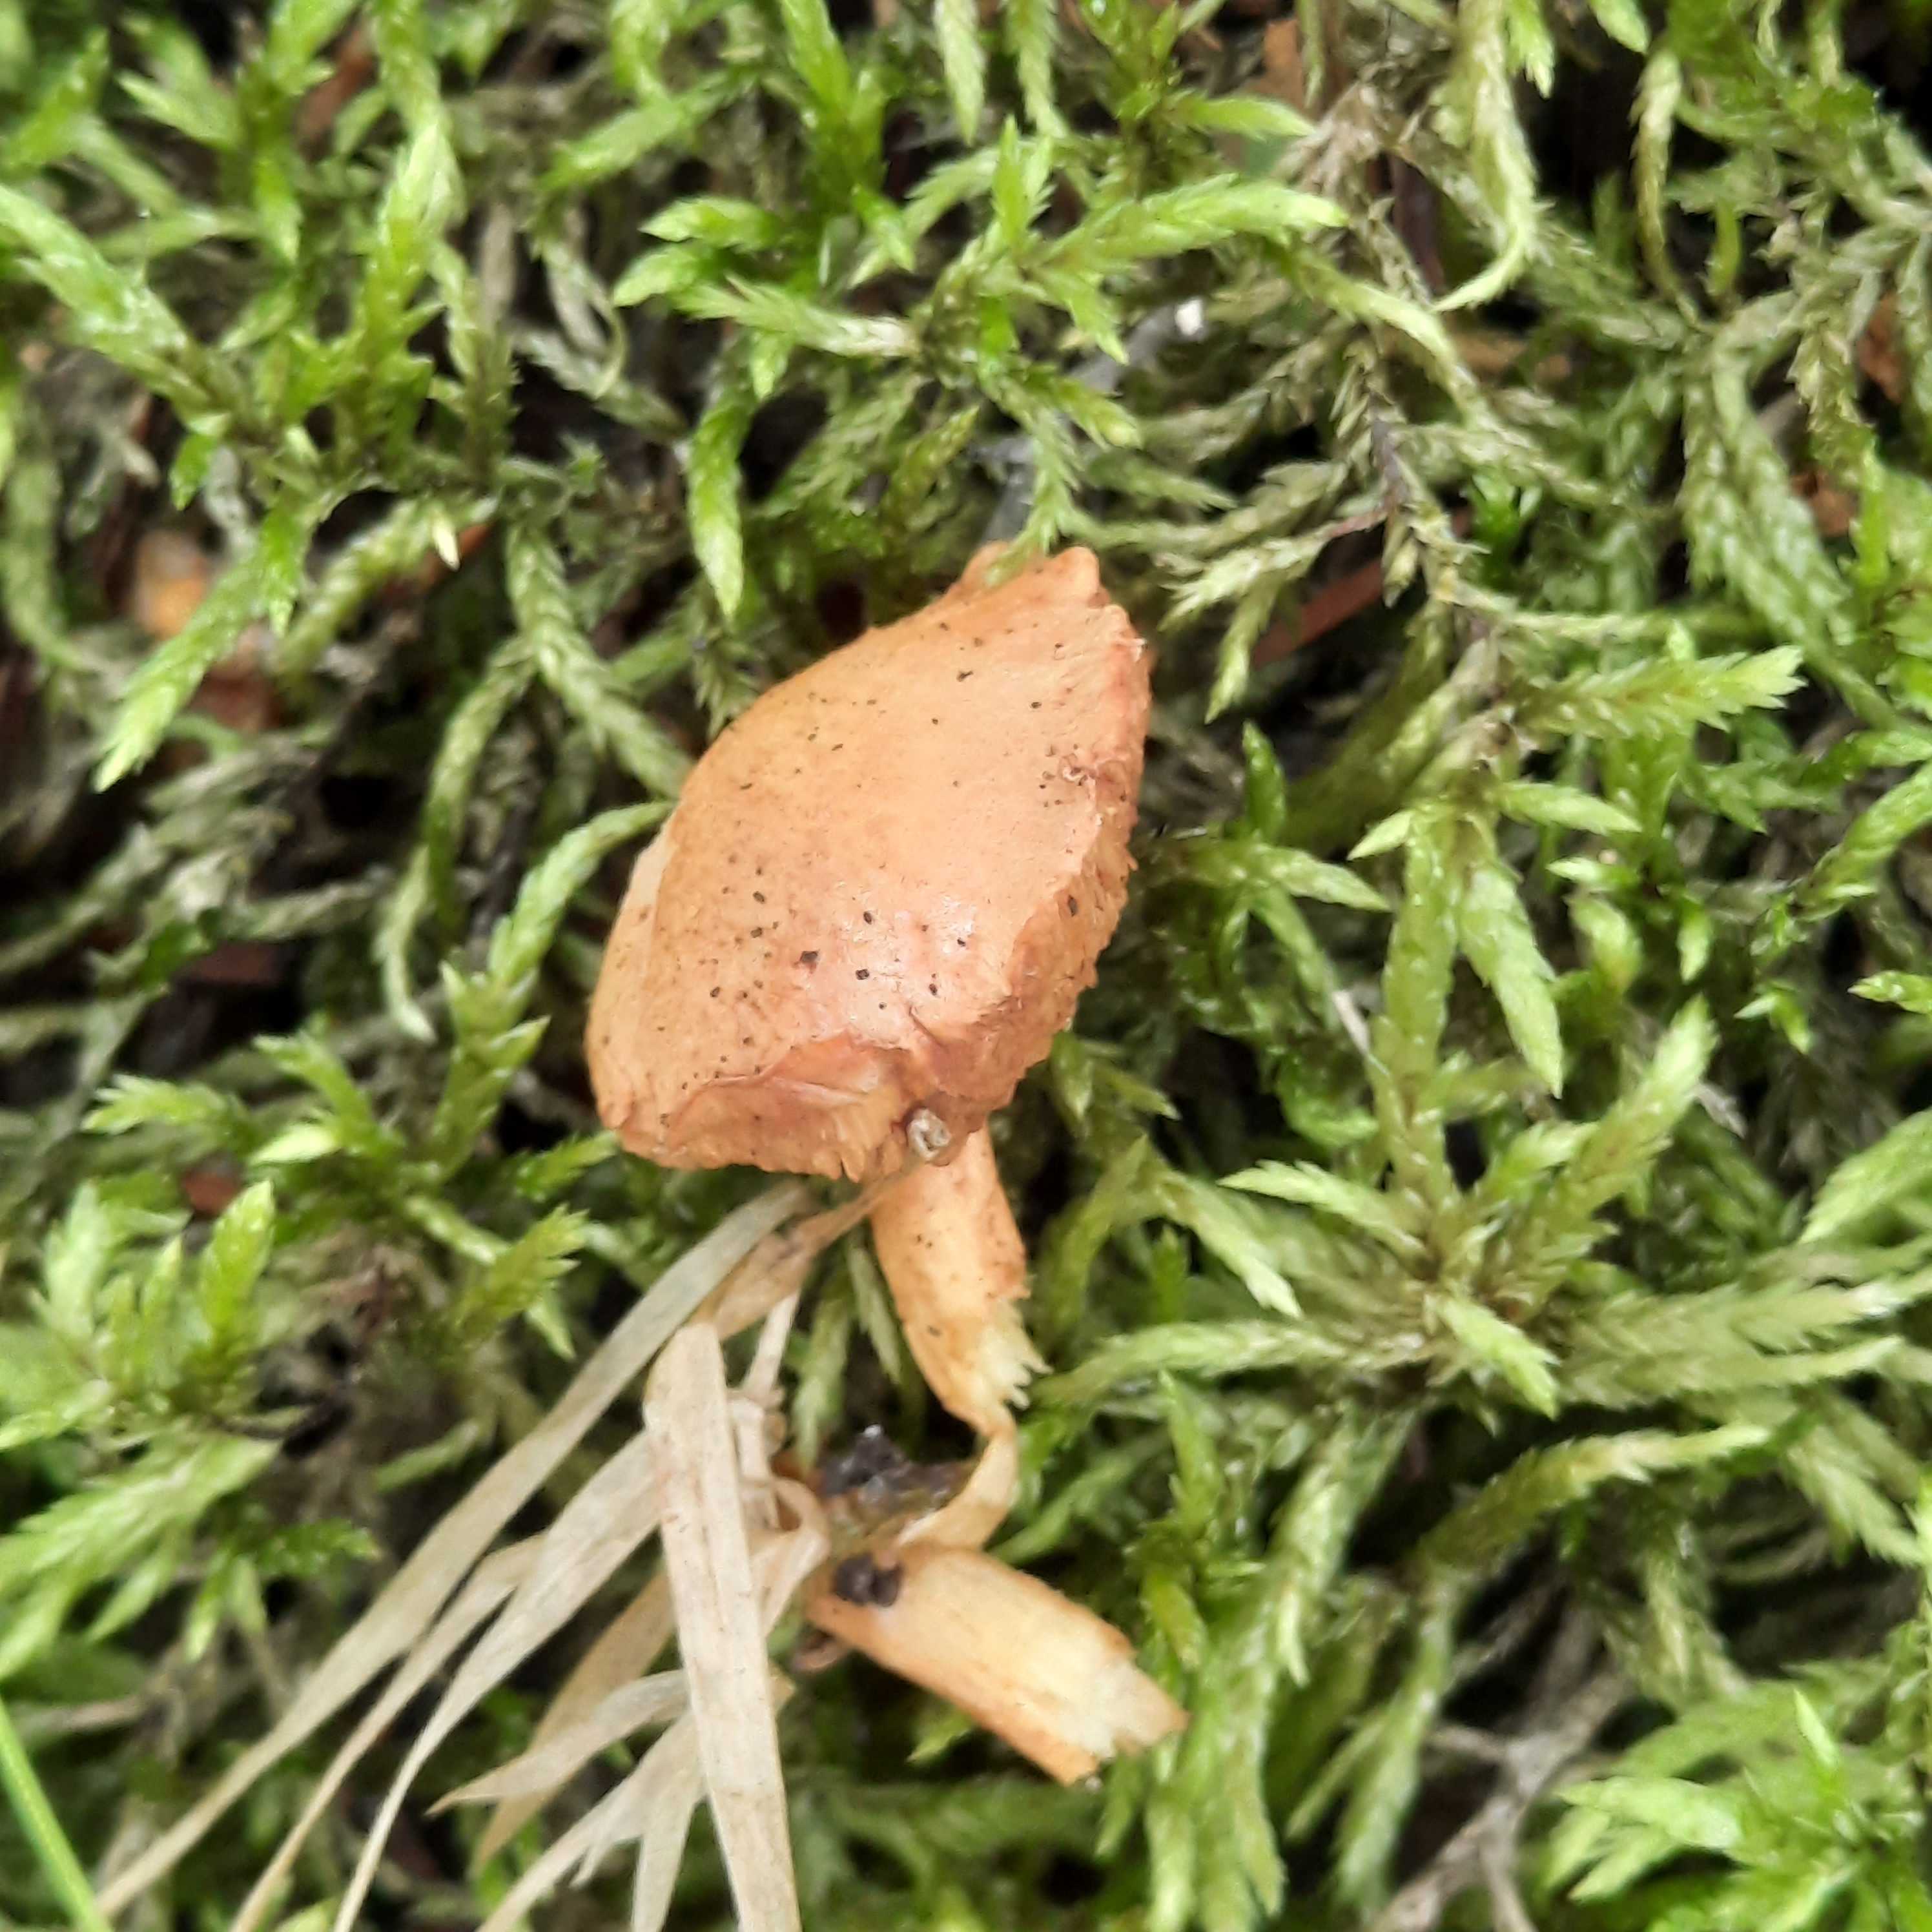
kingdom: Fungi
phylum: Basidiomycota
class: Agaricomycetes
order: Boletales
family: Boletaceae
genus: Chalciporus
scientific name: Chalciporus piperatus
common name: peberrørhat
